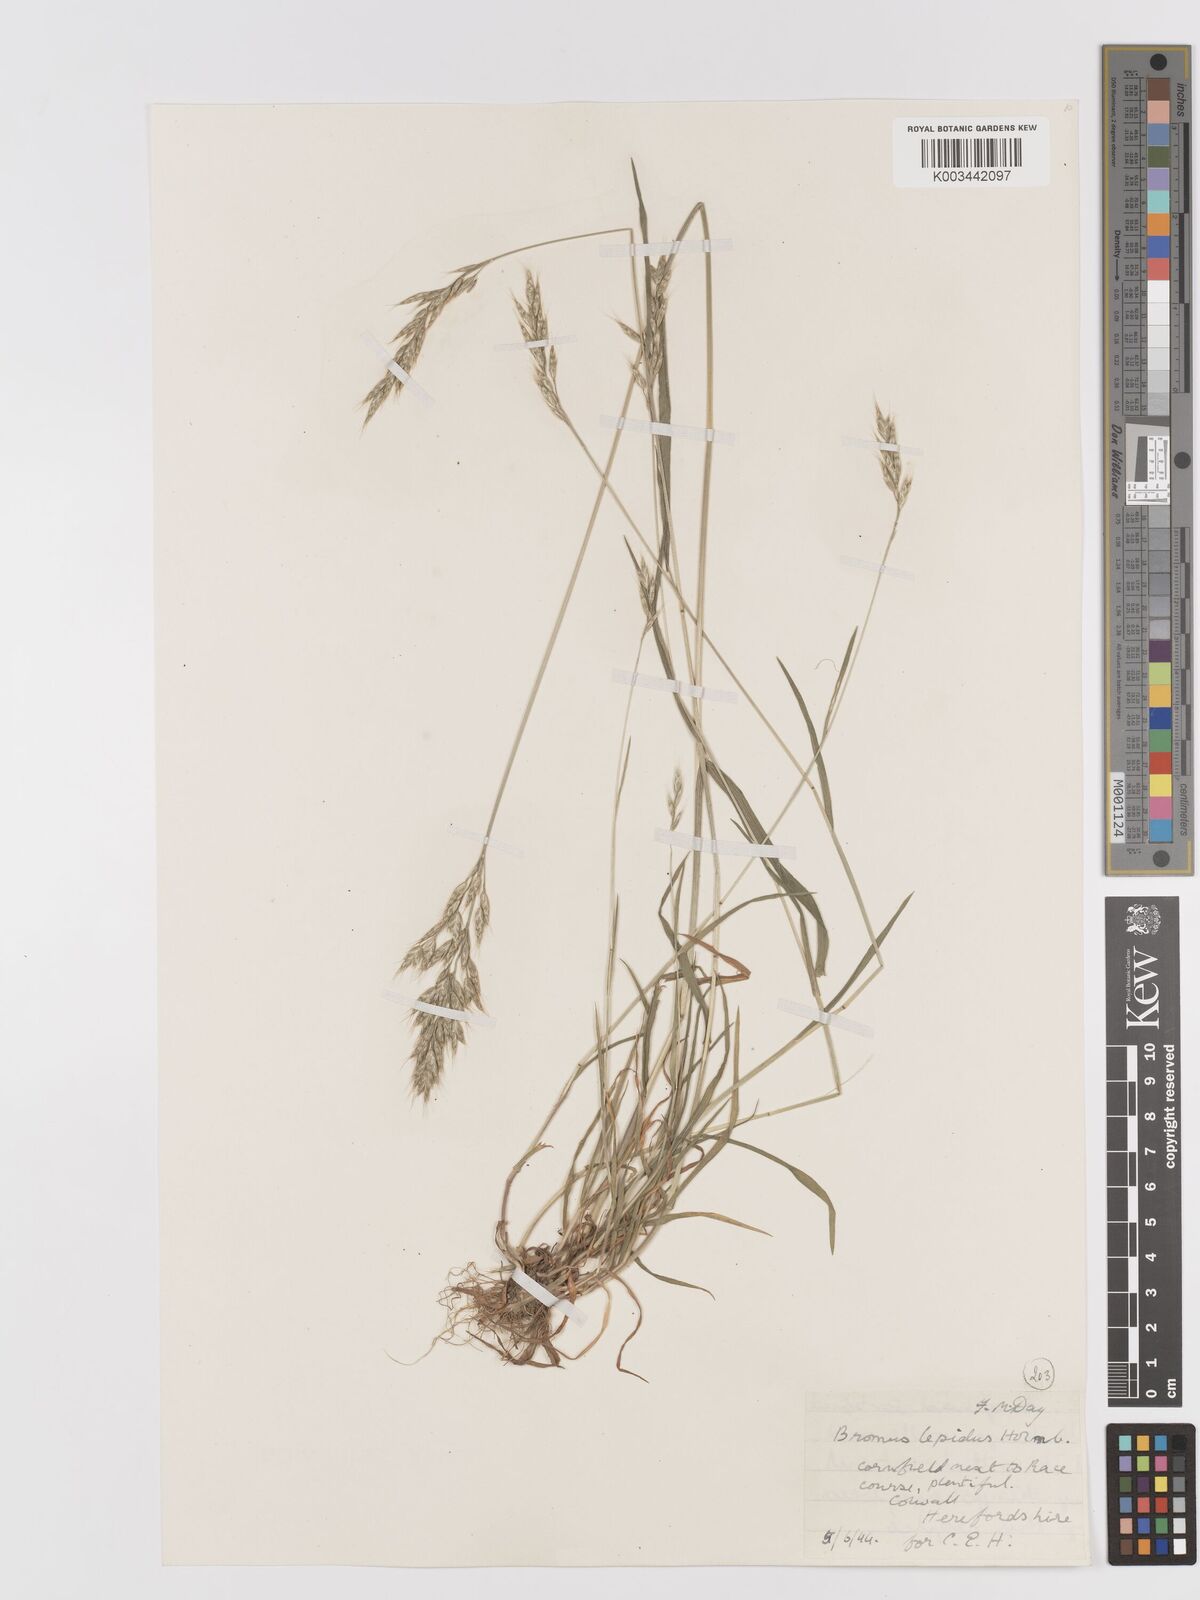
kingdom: Plantae
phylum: Tracheophyta
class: Liliopsida
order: Poales
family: Poaceae
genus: Bromus
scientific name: Bromus lepidus
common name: Slender soft-brome
